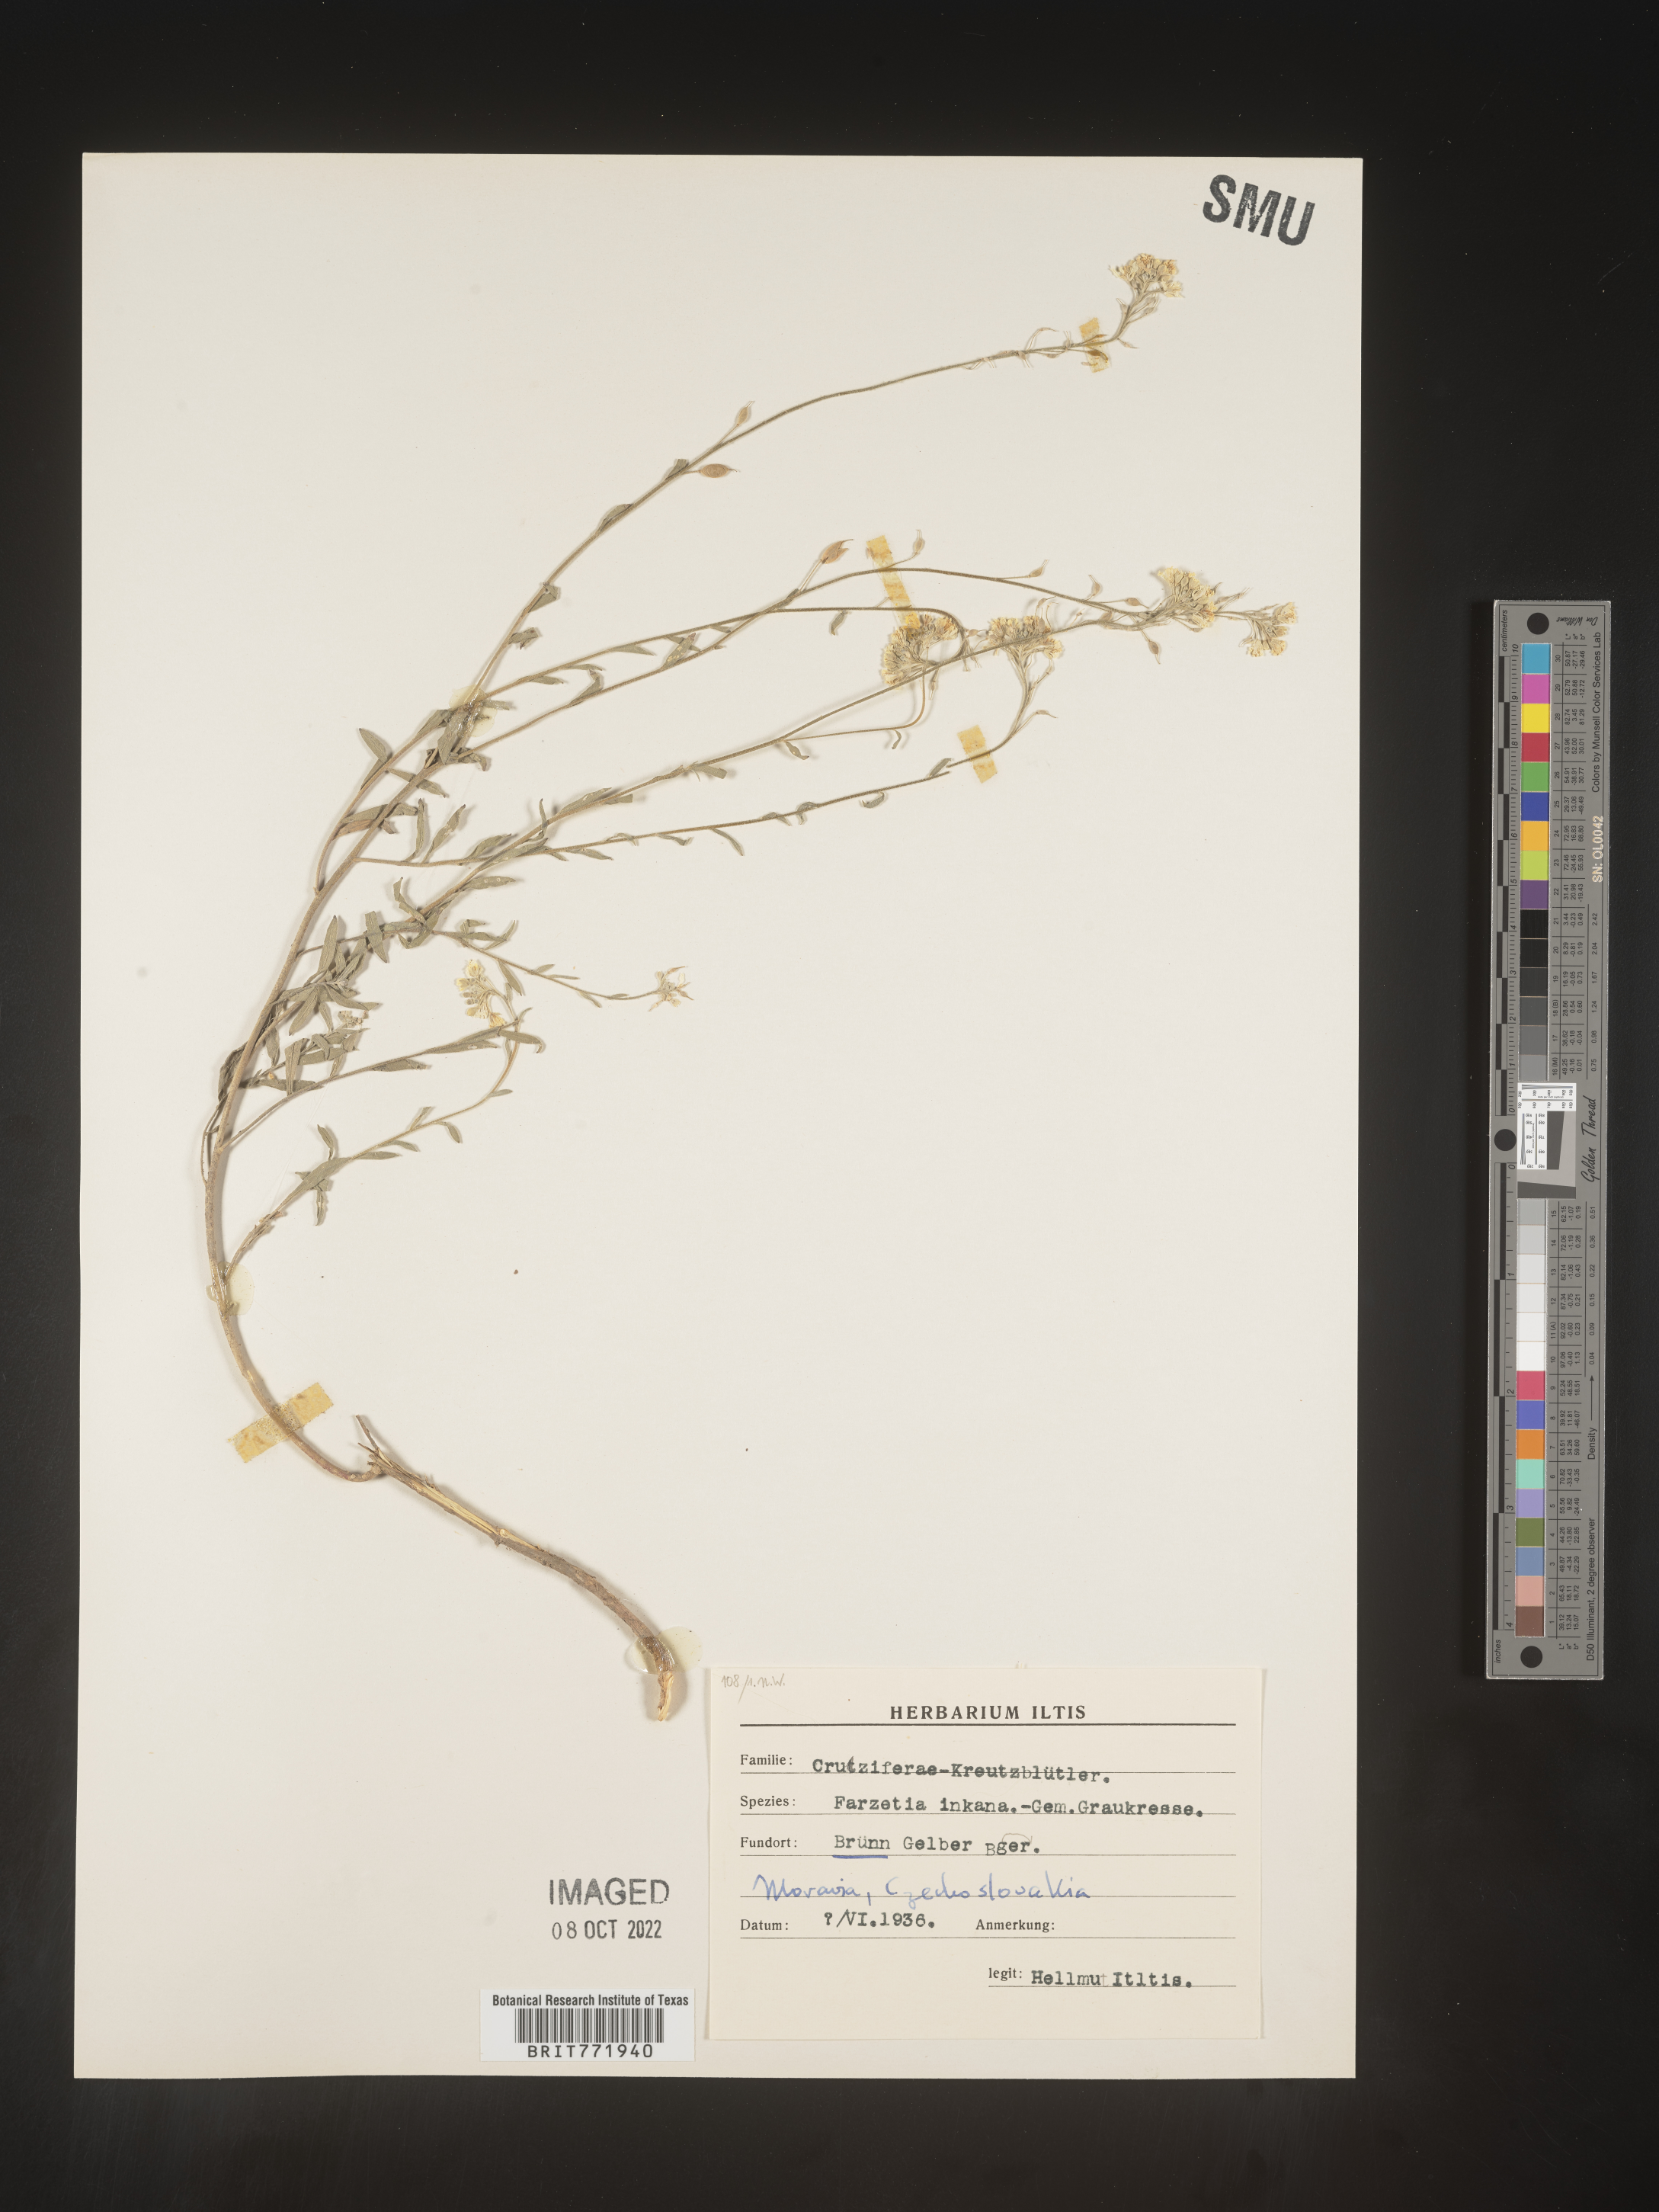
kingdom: Plantae
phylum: Tracheophyta
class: Magnoliopsida
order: Brassicales
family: Brassicaceae
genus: Berteroa
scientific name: Berteroa
